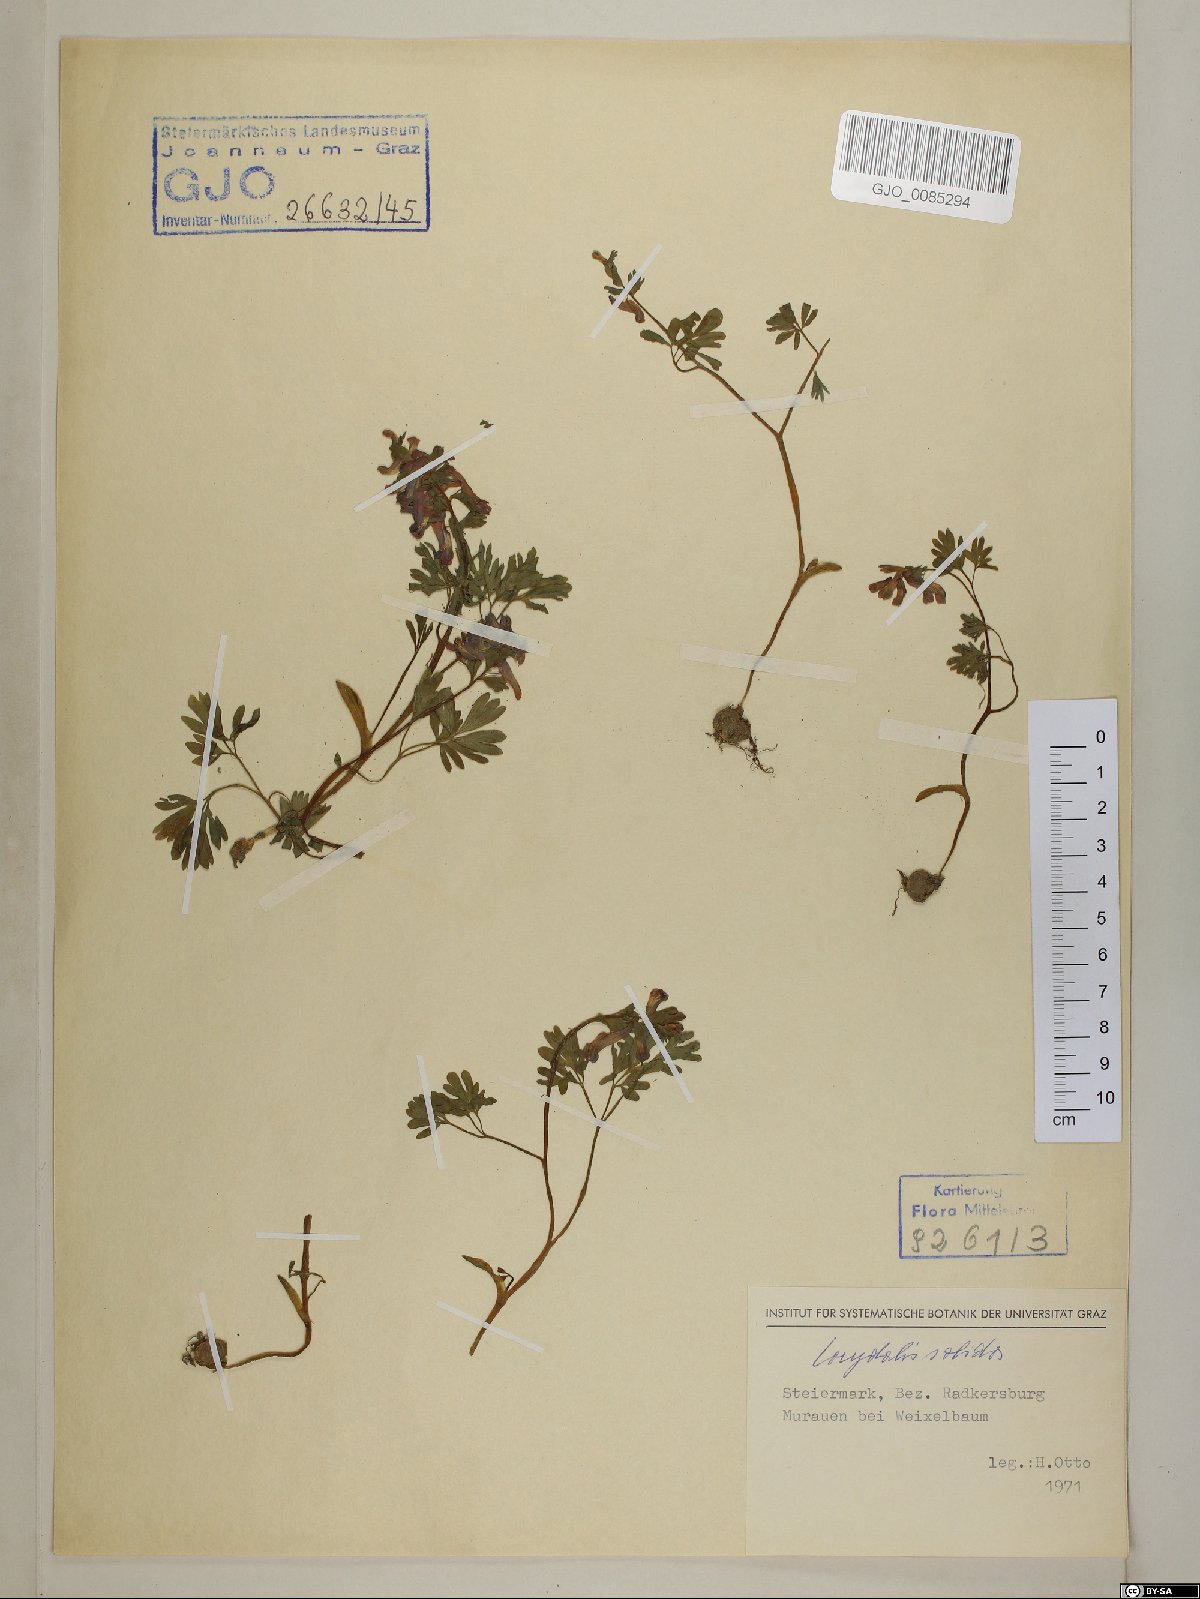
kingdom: Plantae
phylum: Tracheophyta
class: Magnoliopsida
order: Ranunculales
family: Papaveraceae
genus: Corydalis
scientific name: Corydalis solida
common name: Bird-in-a-bush
